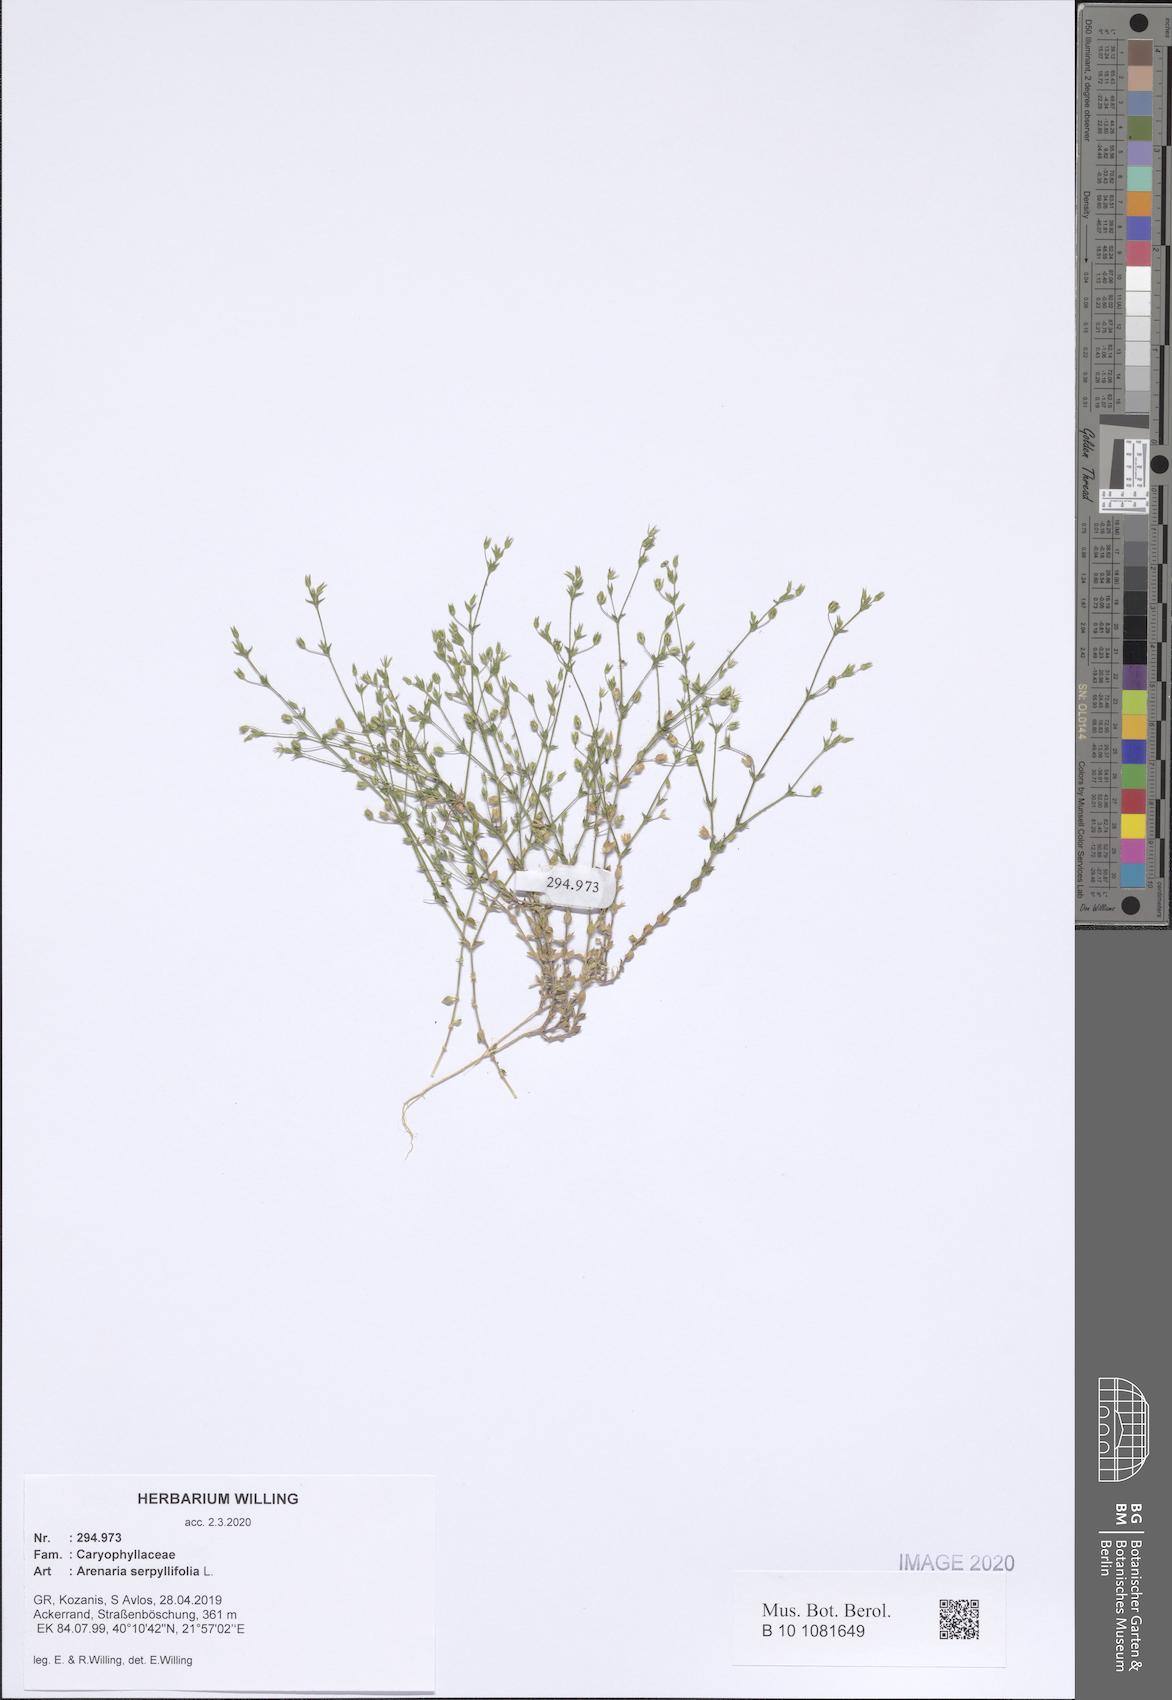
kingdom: Plantae
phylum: Tracheophyta
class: Magnoliopsida
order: Caryophyllales
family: Caryophyllaceae
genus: Arenaria
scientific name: Arenaria serpyllifolia
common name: Thyme-leaved sandwort
